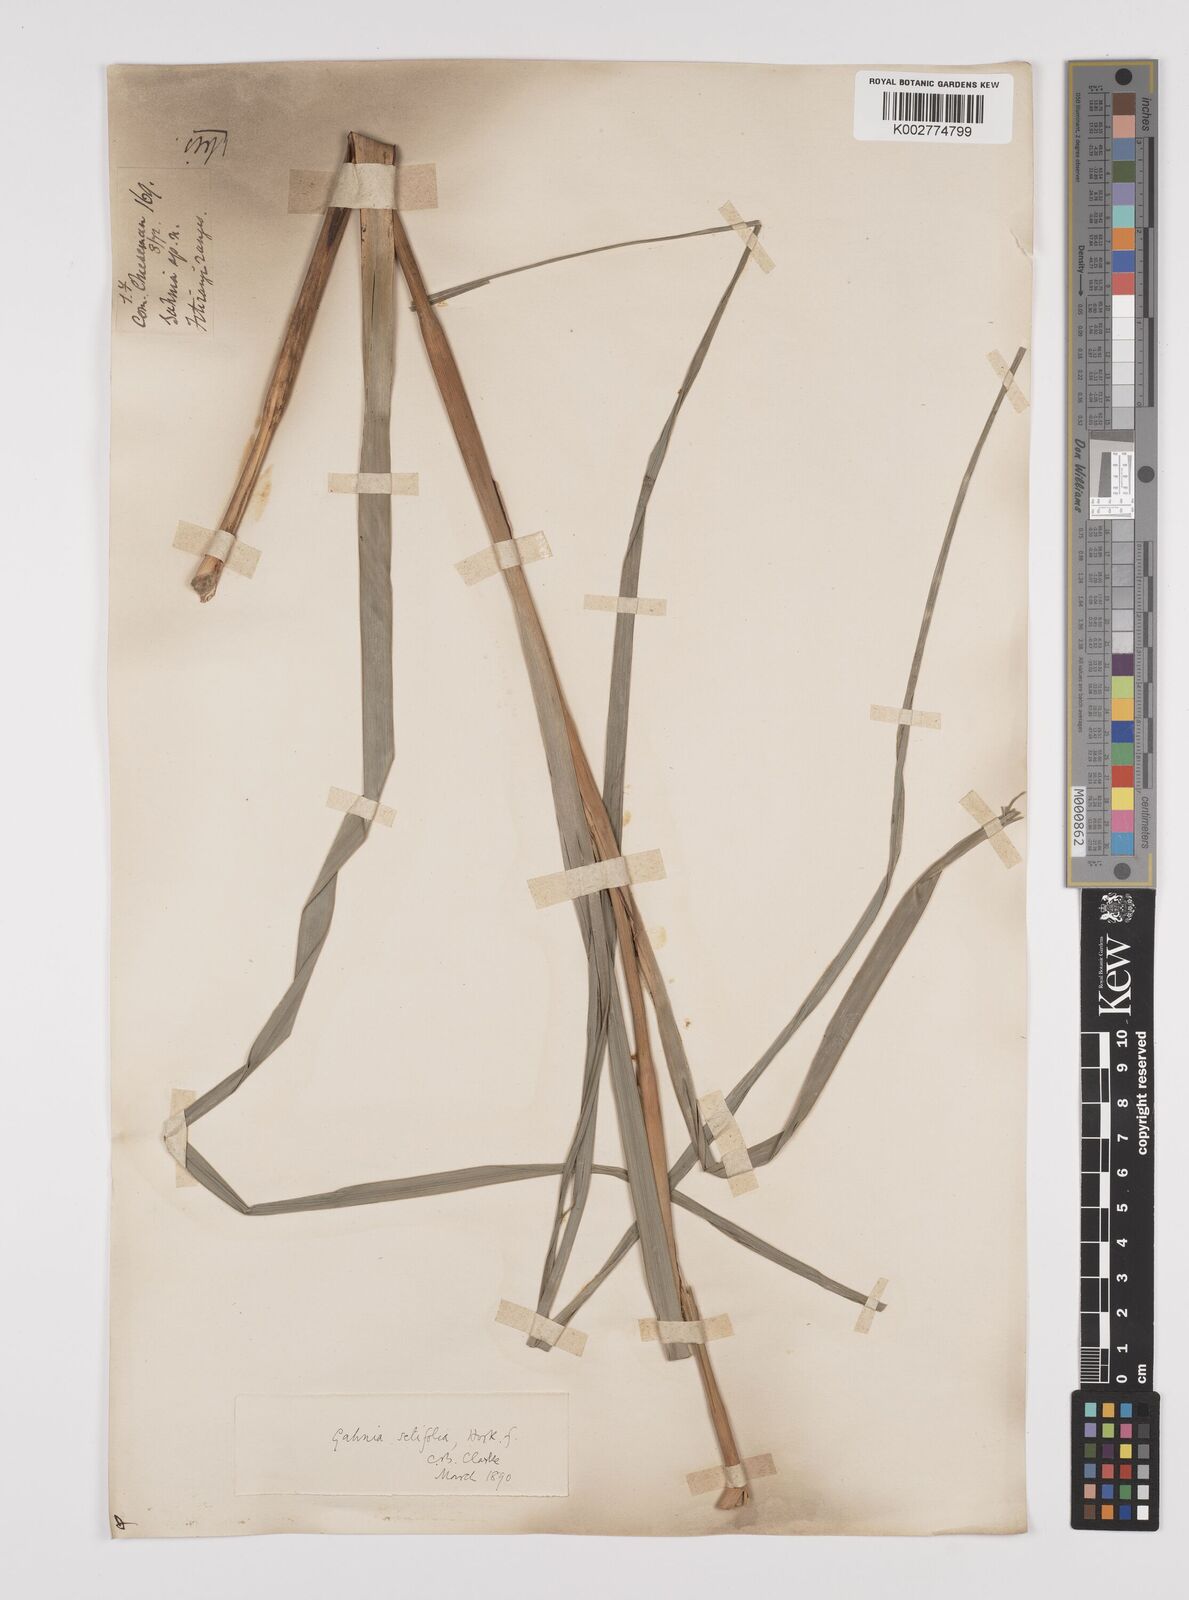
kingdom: Plantae
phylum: Tracheophyta
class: Liliopsida
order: Poales
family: Cyperaceae
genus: Gahnia
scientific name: Gahnia pauciflora
